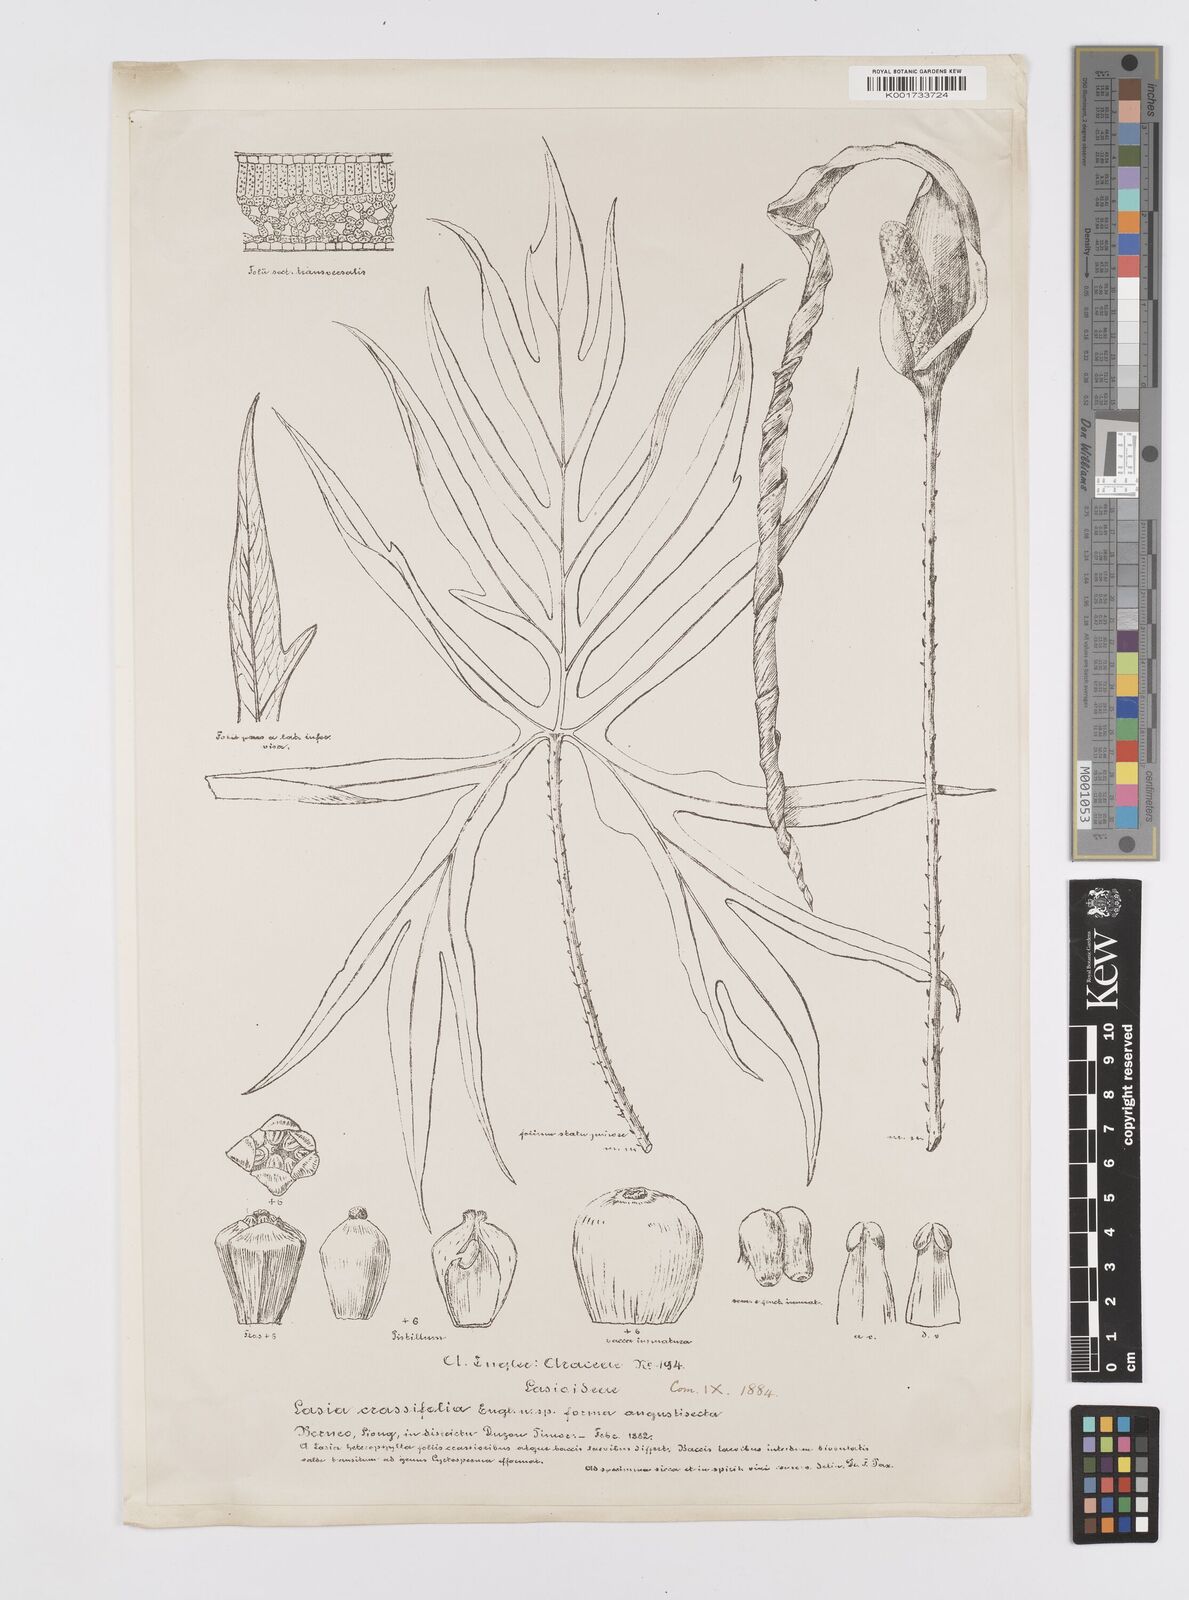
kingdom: Plantae
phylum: Tracheophyta
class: Liliopsida
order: Alismatales
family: Araceae
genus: Lasia
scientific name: Lasia spinosa
